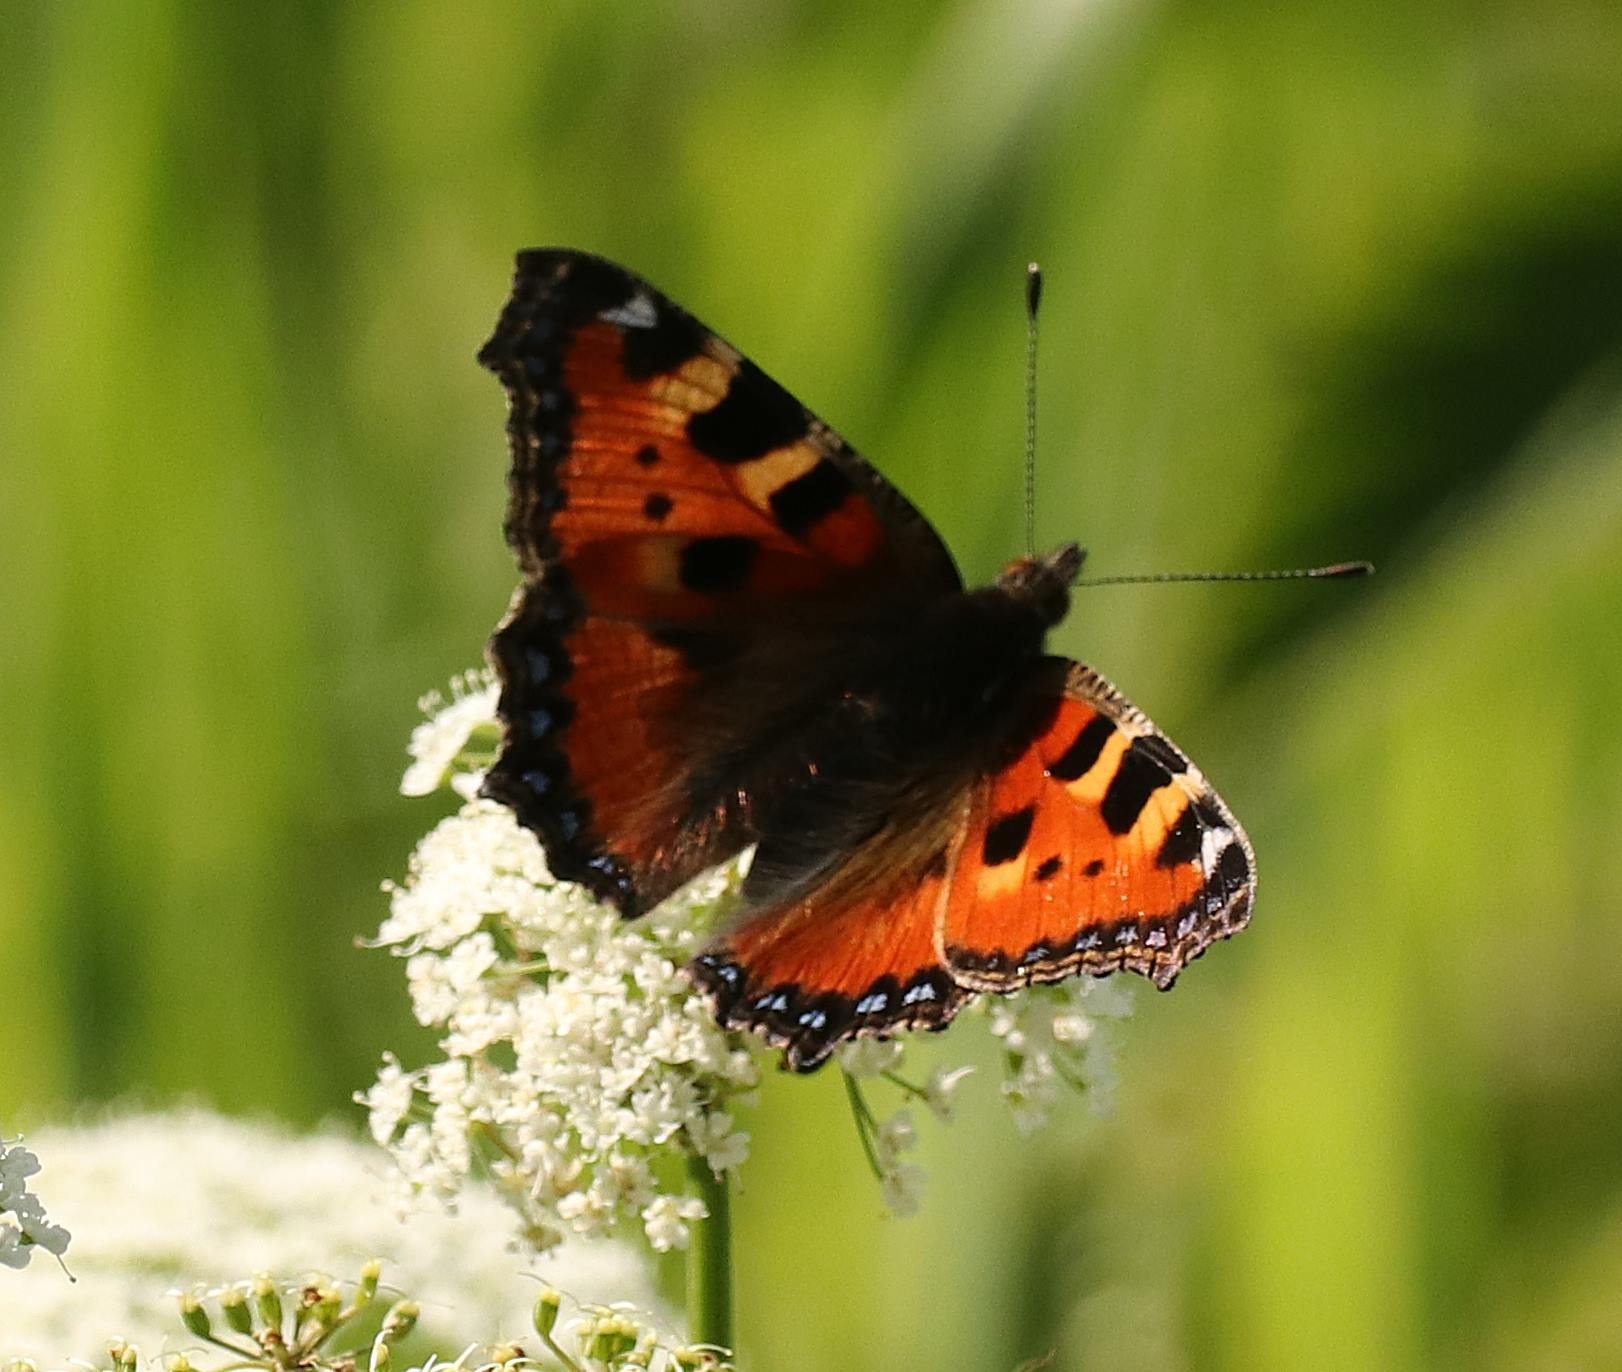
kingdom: Animalia
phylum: Arthropoda
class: Insecta
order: Lepidoptera
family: Nymphalidae
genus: Aglais
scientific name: Aglais urticae
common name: Nældens takvinge
